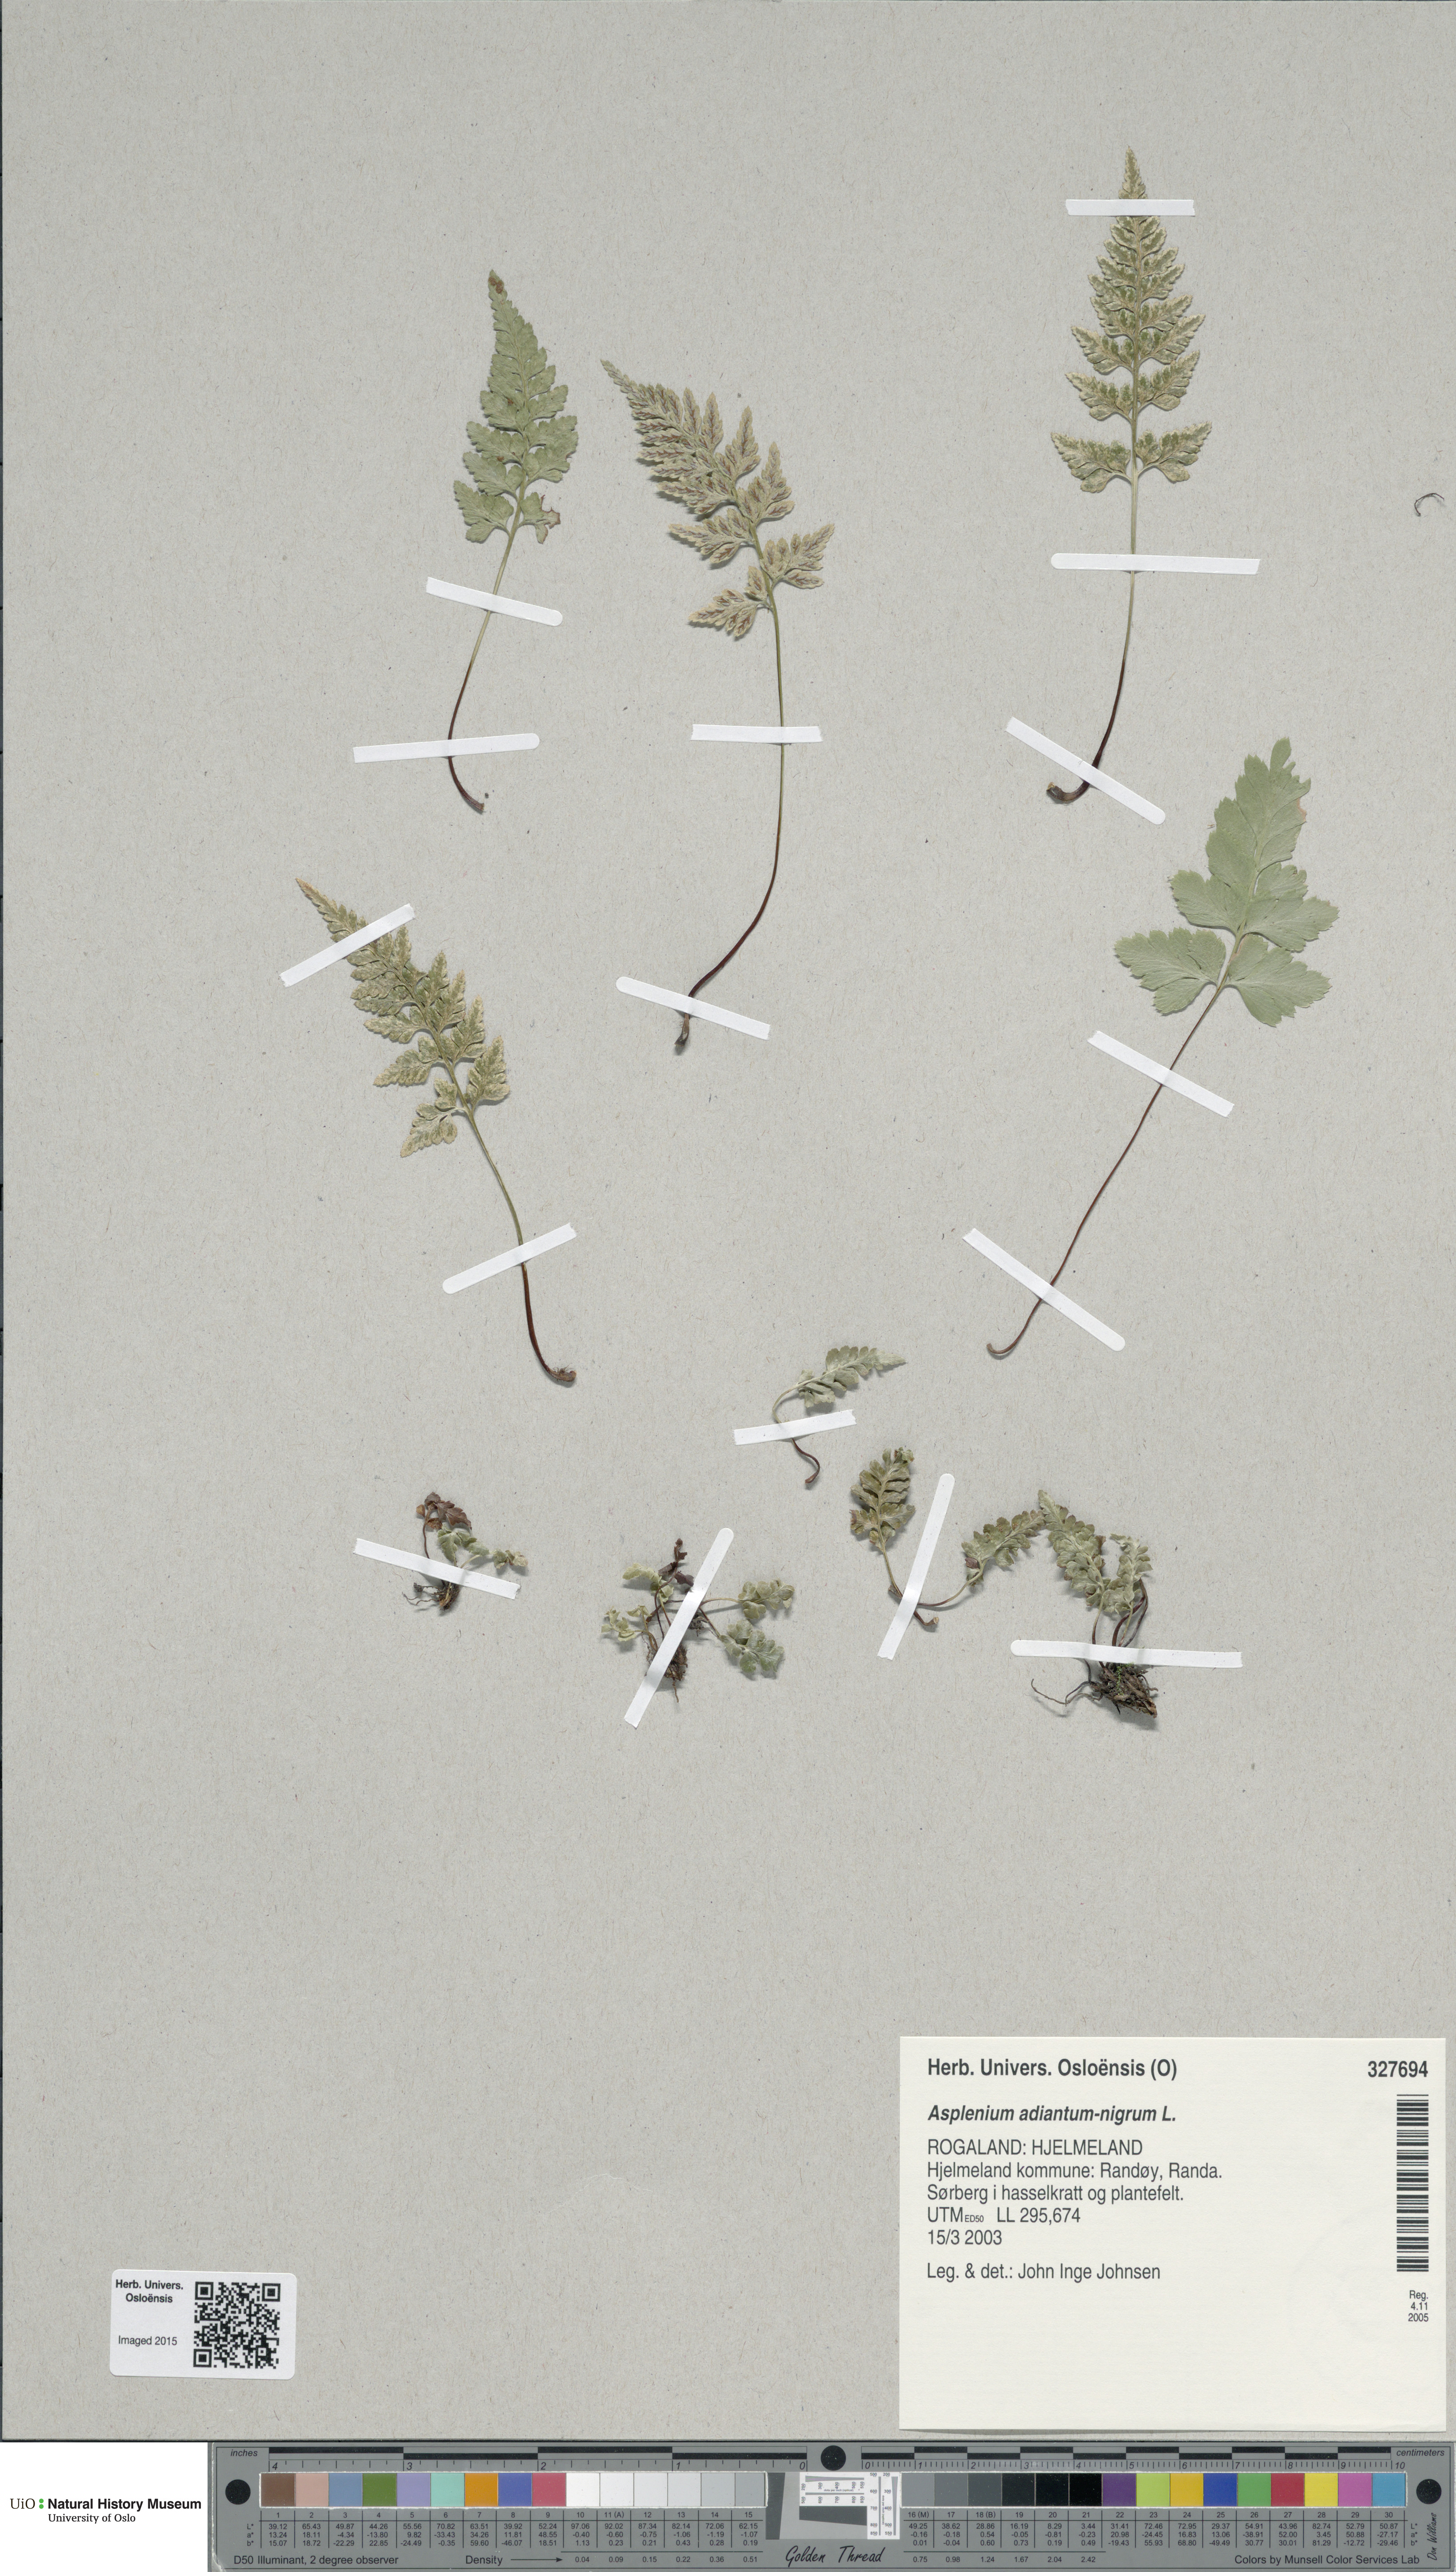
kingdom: Plantae
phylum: Tracheophyta
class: Polypodiopsida
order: Polypodiales
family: Aspleniaceae
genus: Asplenium
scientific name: Asplenium adiantum-nigrum
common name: Black spleenwort
